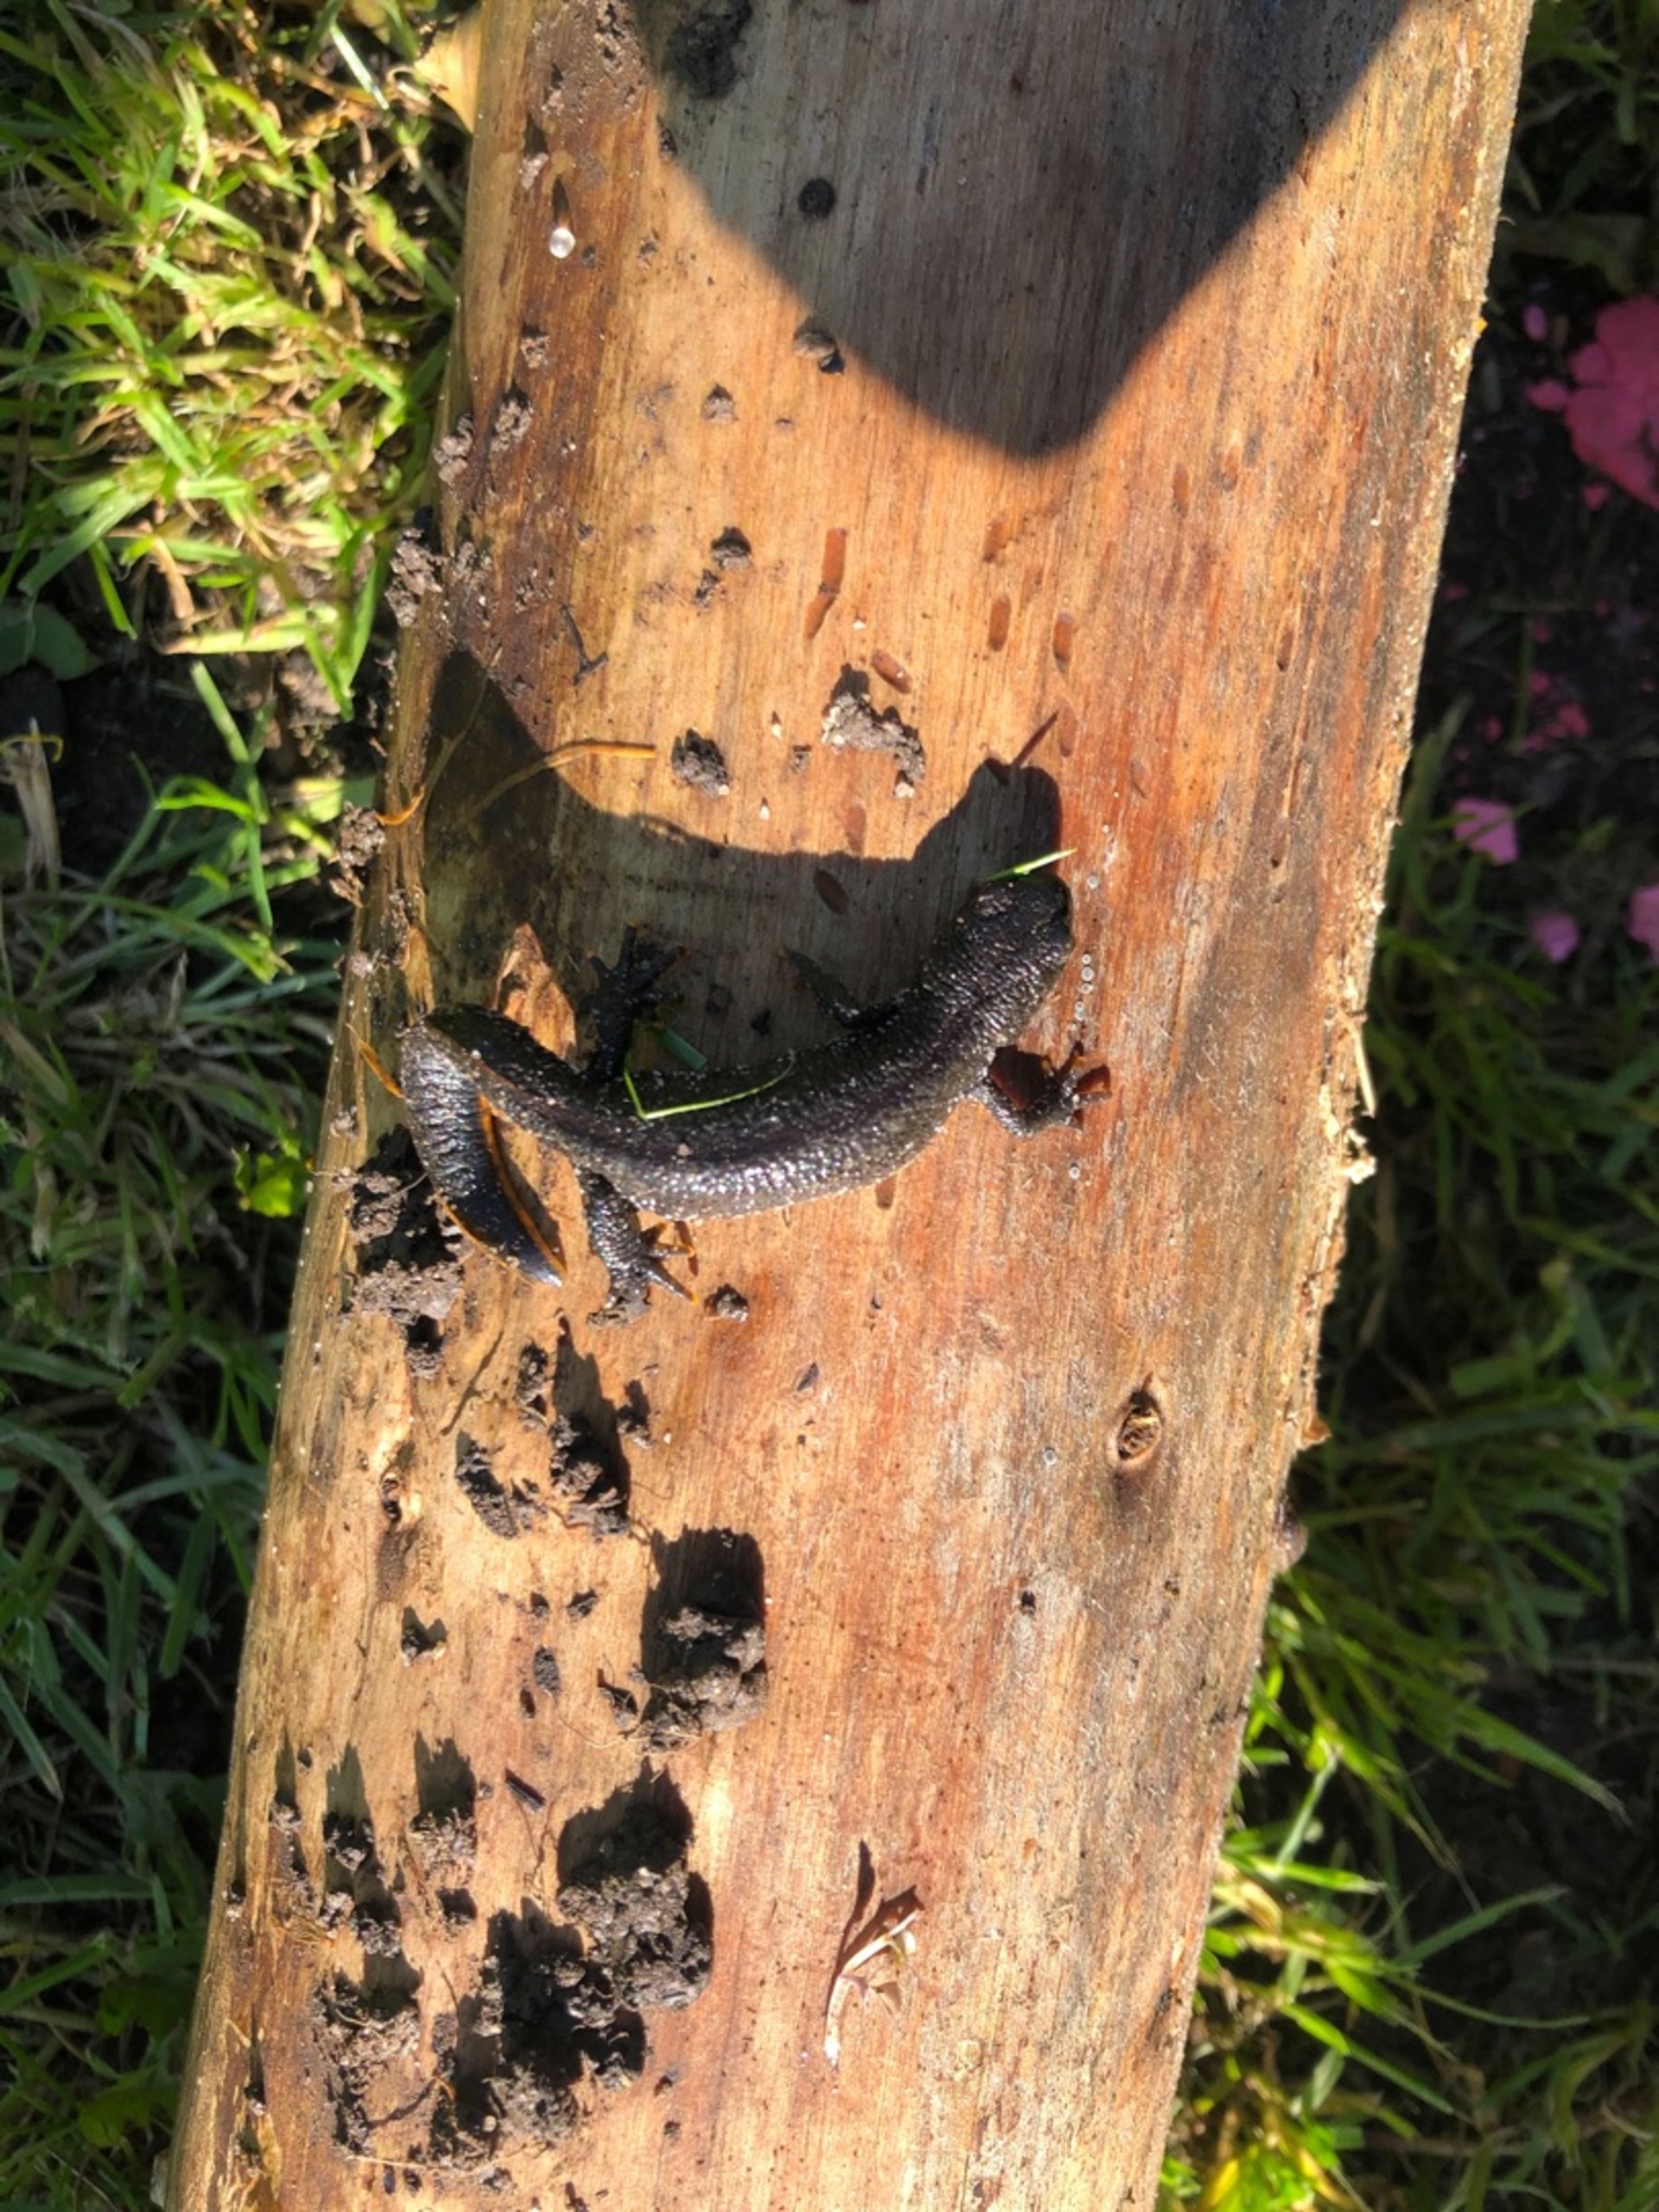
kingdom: Animalia
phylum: Chordata
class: Amphibia
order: Caudata
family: Salamandridae
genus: Triturus
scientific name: Triturus cristatus
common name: Stor vandsalamander
